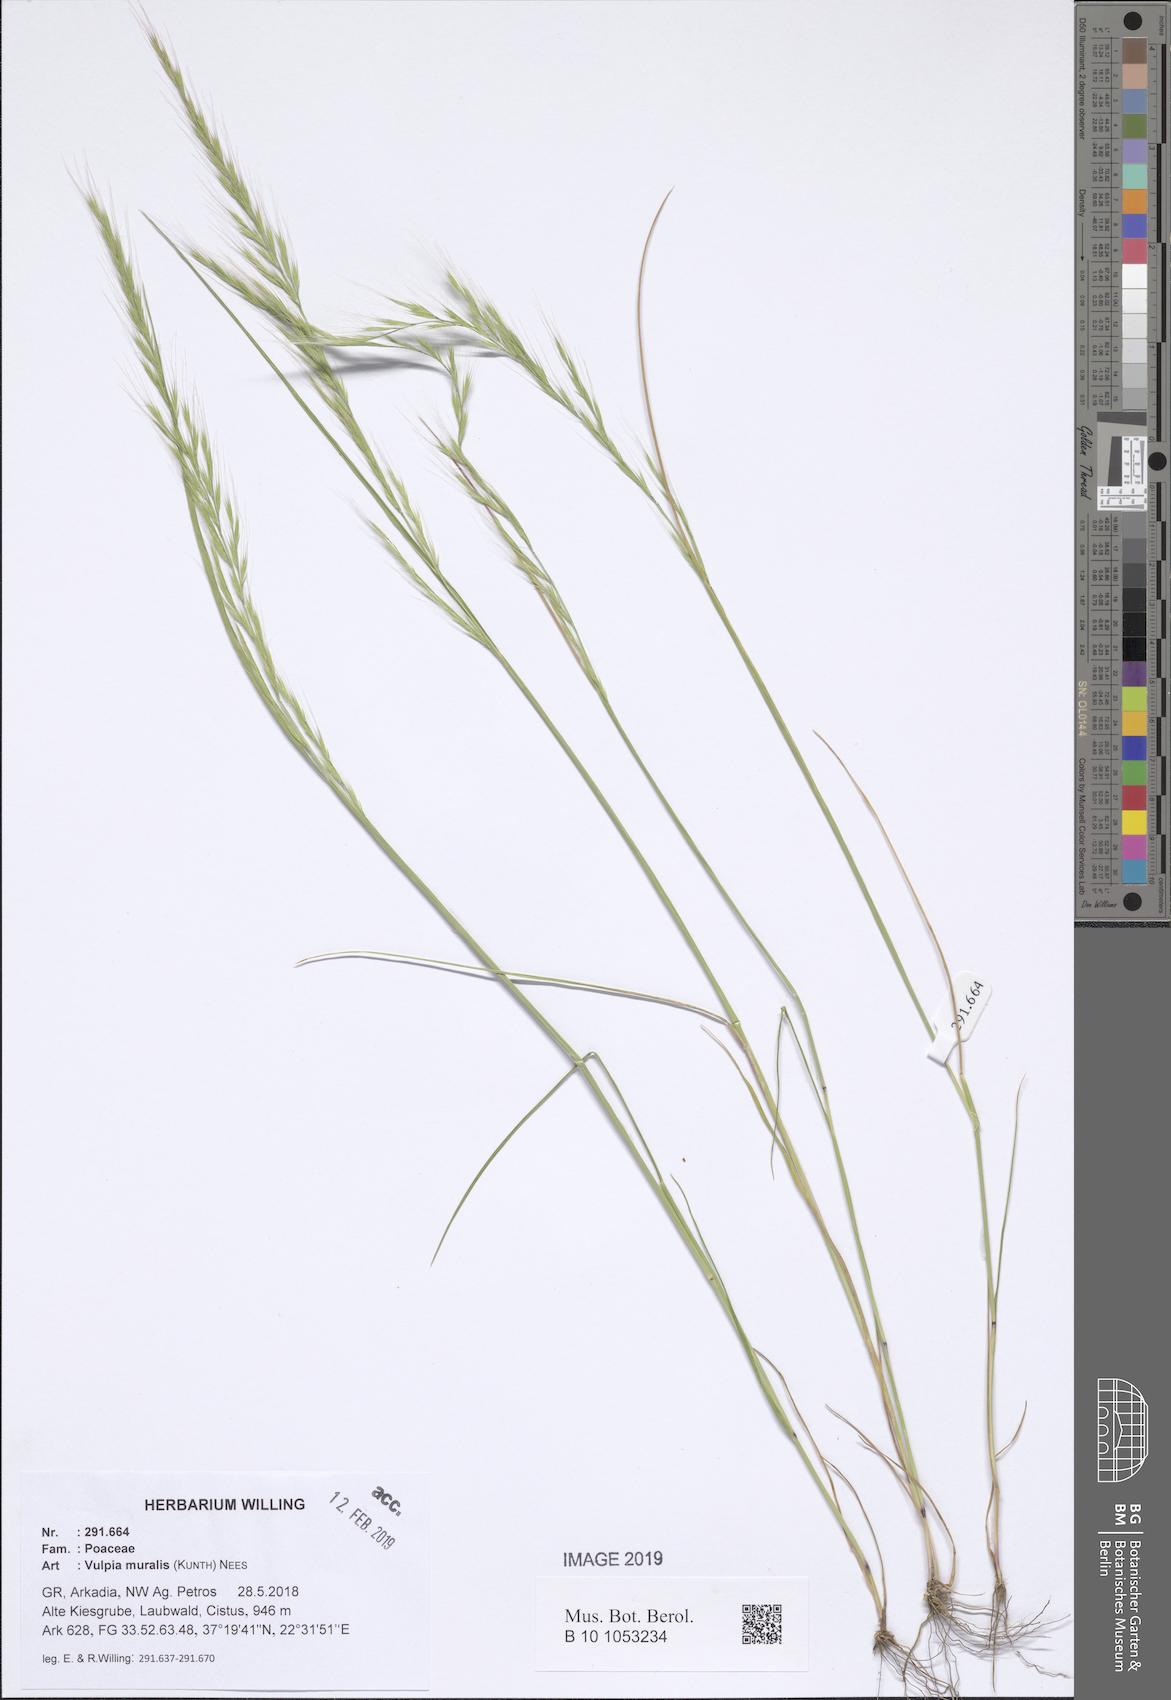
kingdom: Plantae
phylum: Tracheophyta
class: Liliopsida
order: Poales
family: Poaceae
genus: Festuca
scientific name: Festuca muralis
